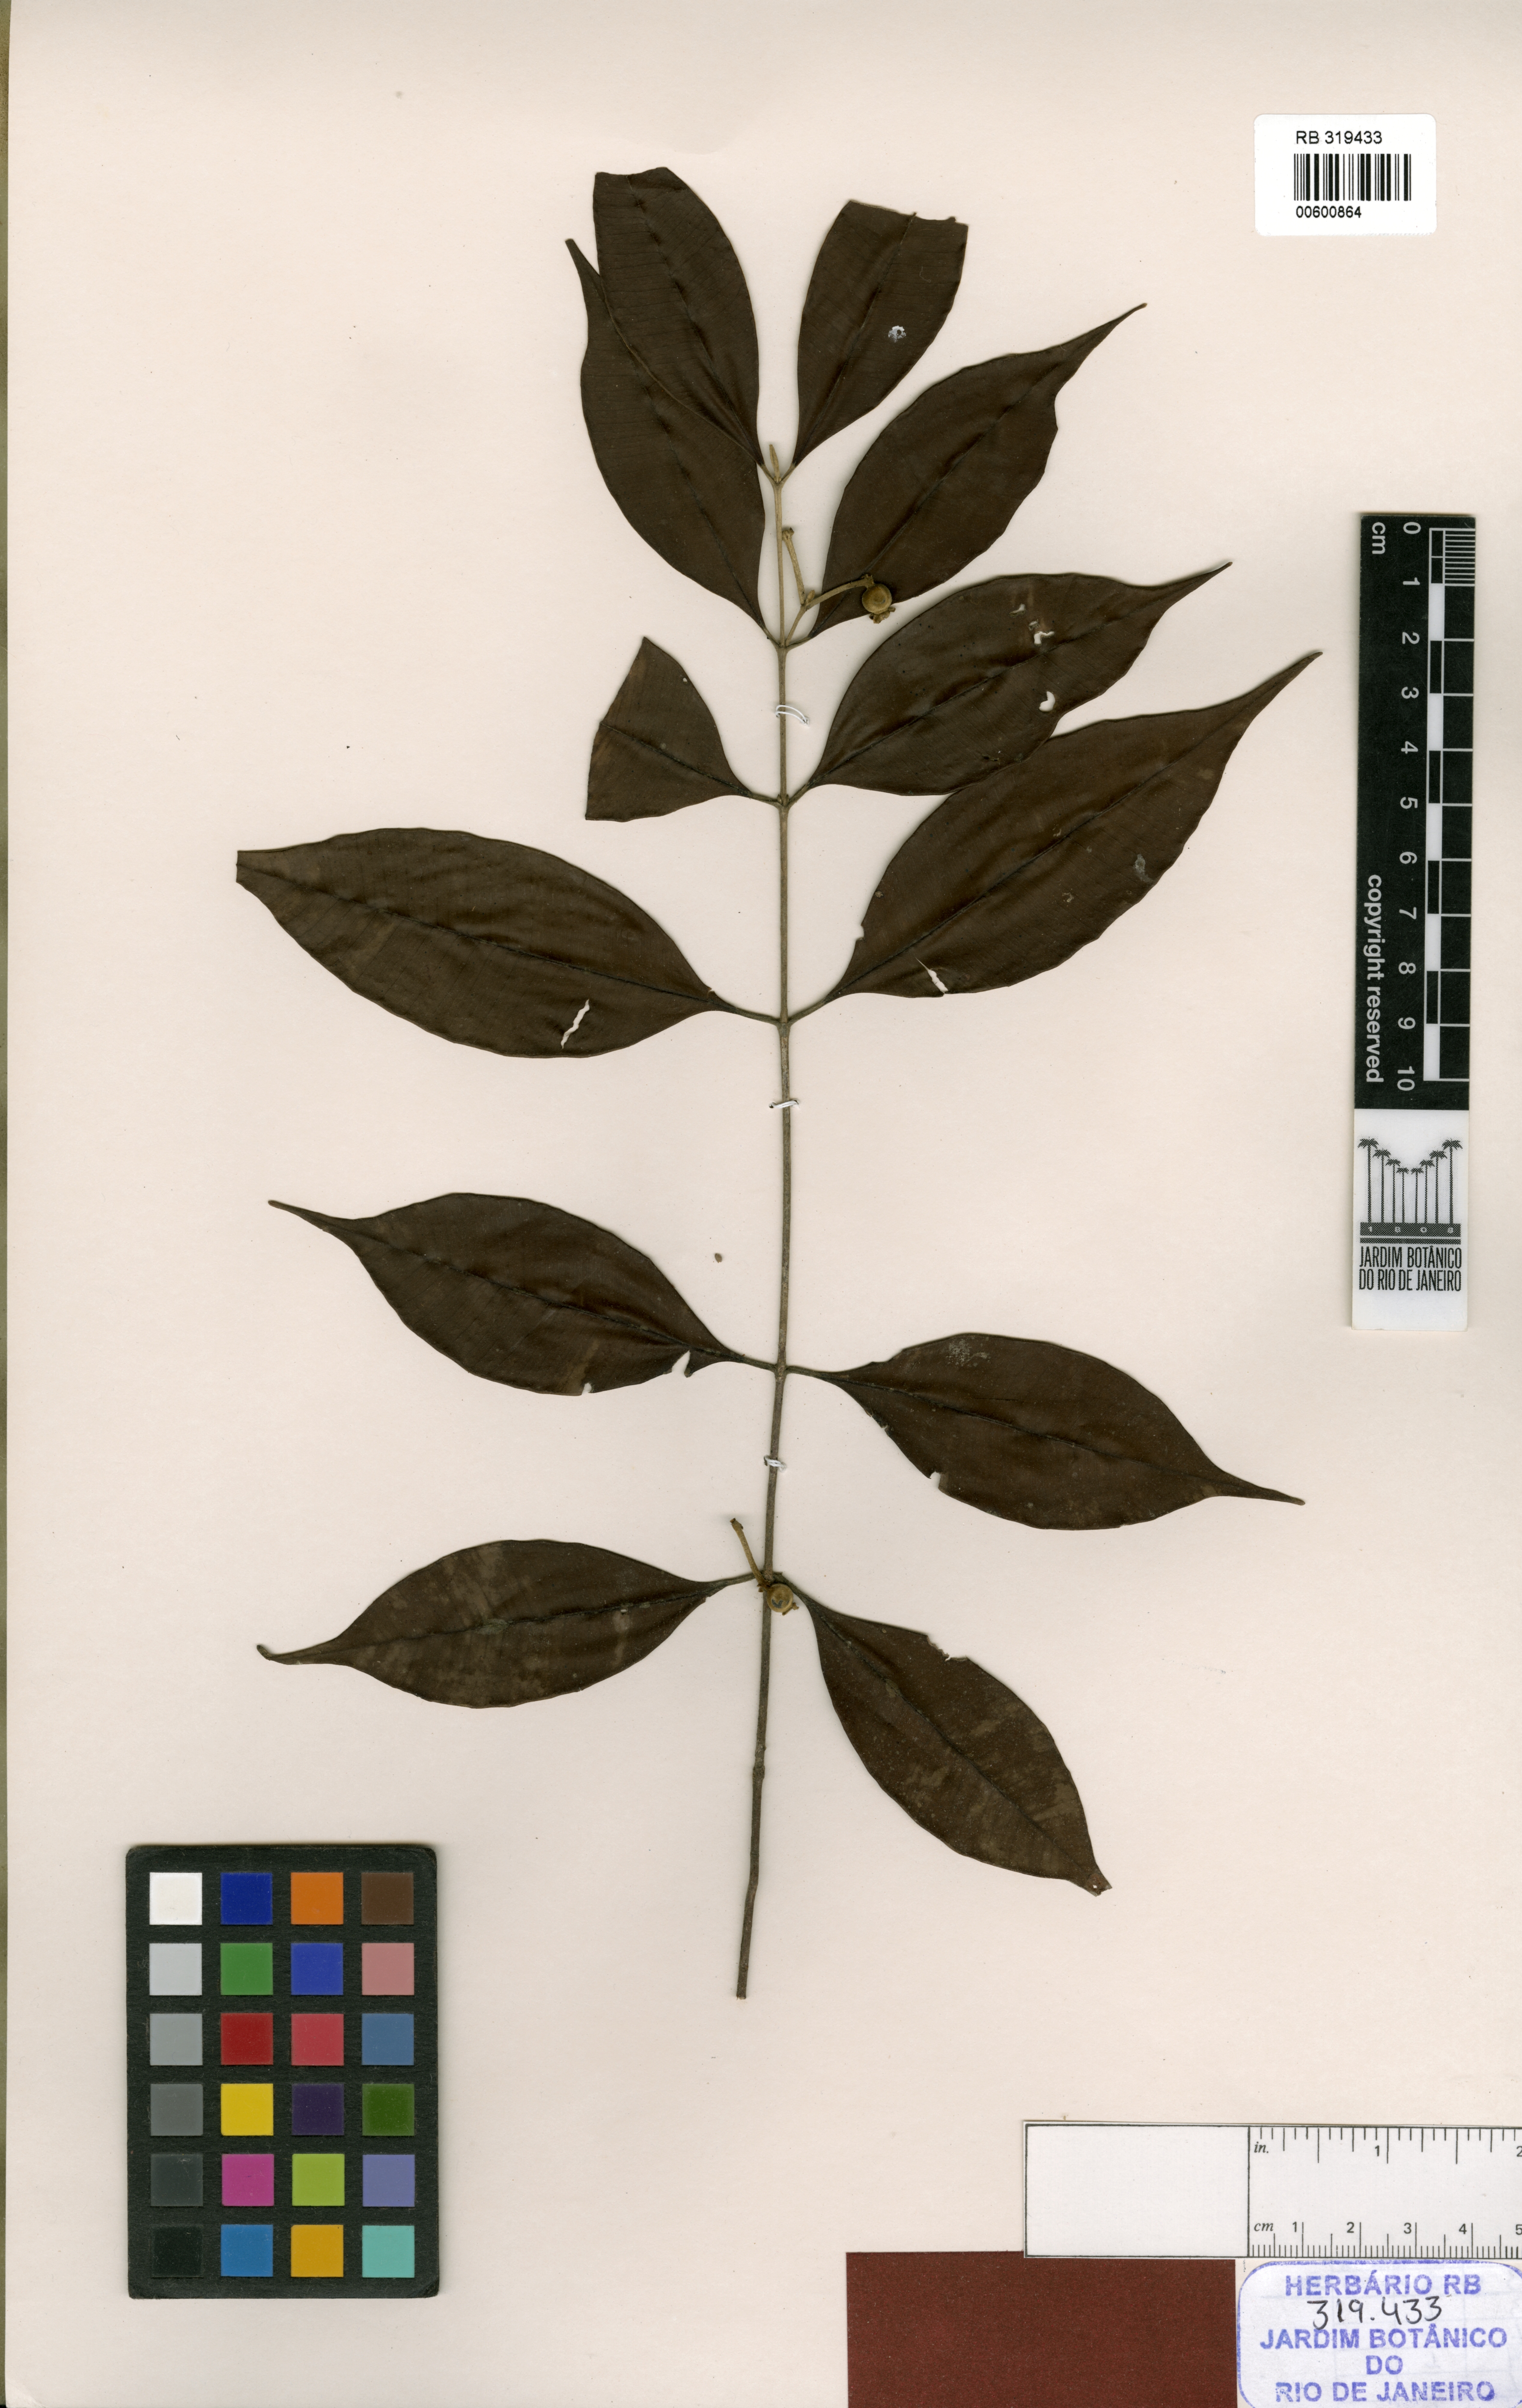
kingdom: Plantae
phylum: Tracheophyta
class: Magnoliopsida
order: Myrtales
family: Myrtaceae
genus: Myrcia
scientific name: Myrcia aurea
